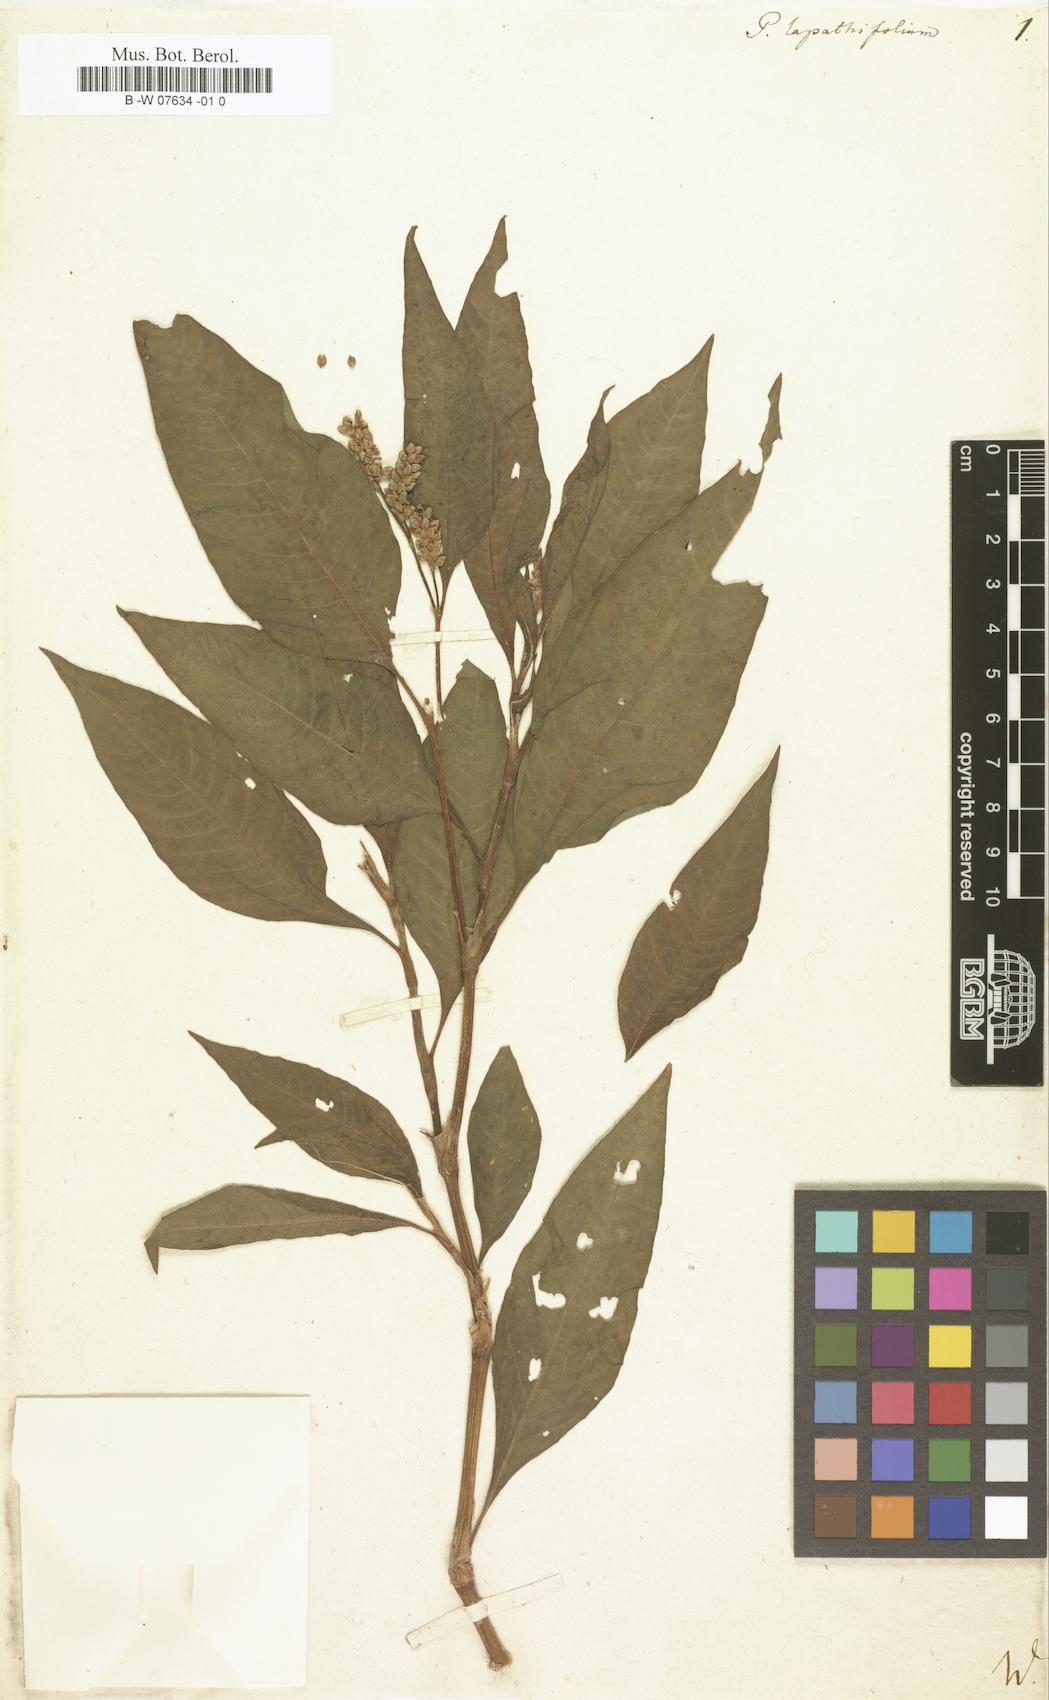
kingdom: Plantae
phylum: Tracheophyta
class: Magnoliopsida
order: Caryophyllales
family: Polygonaceae
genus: Persicaria
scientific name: Persicaria
